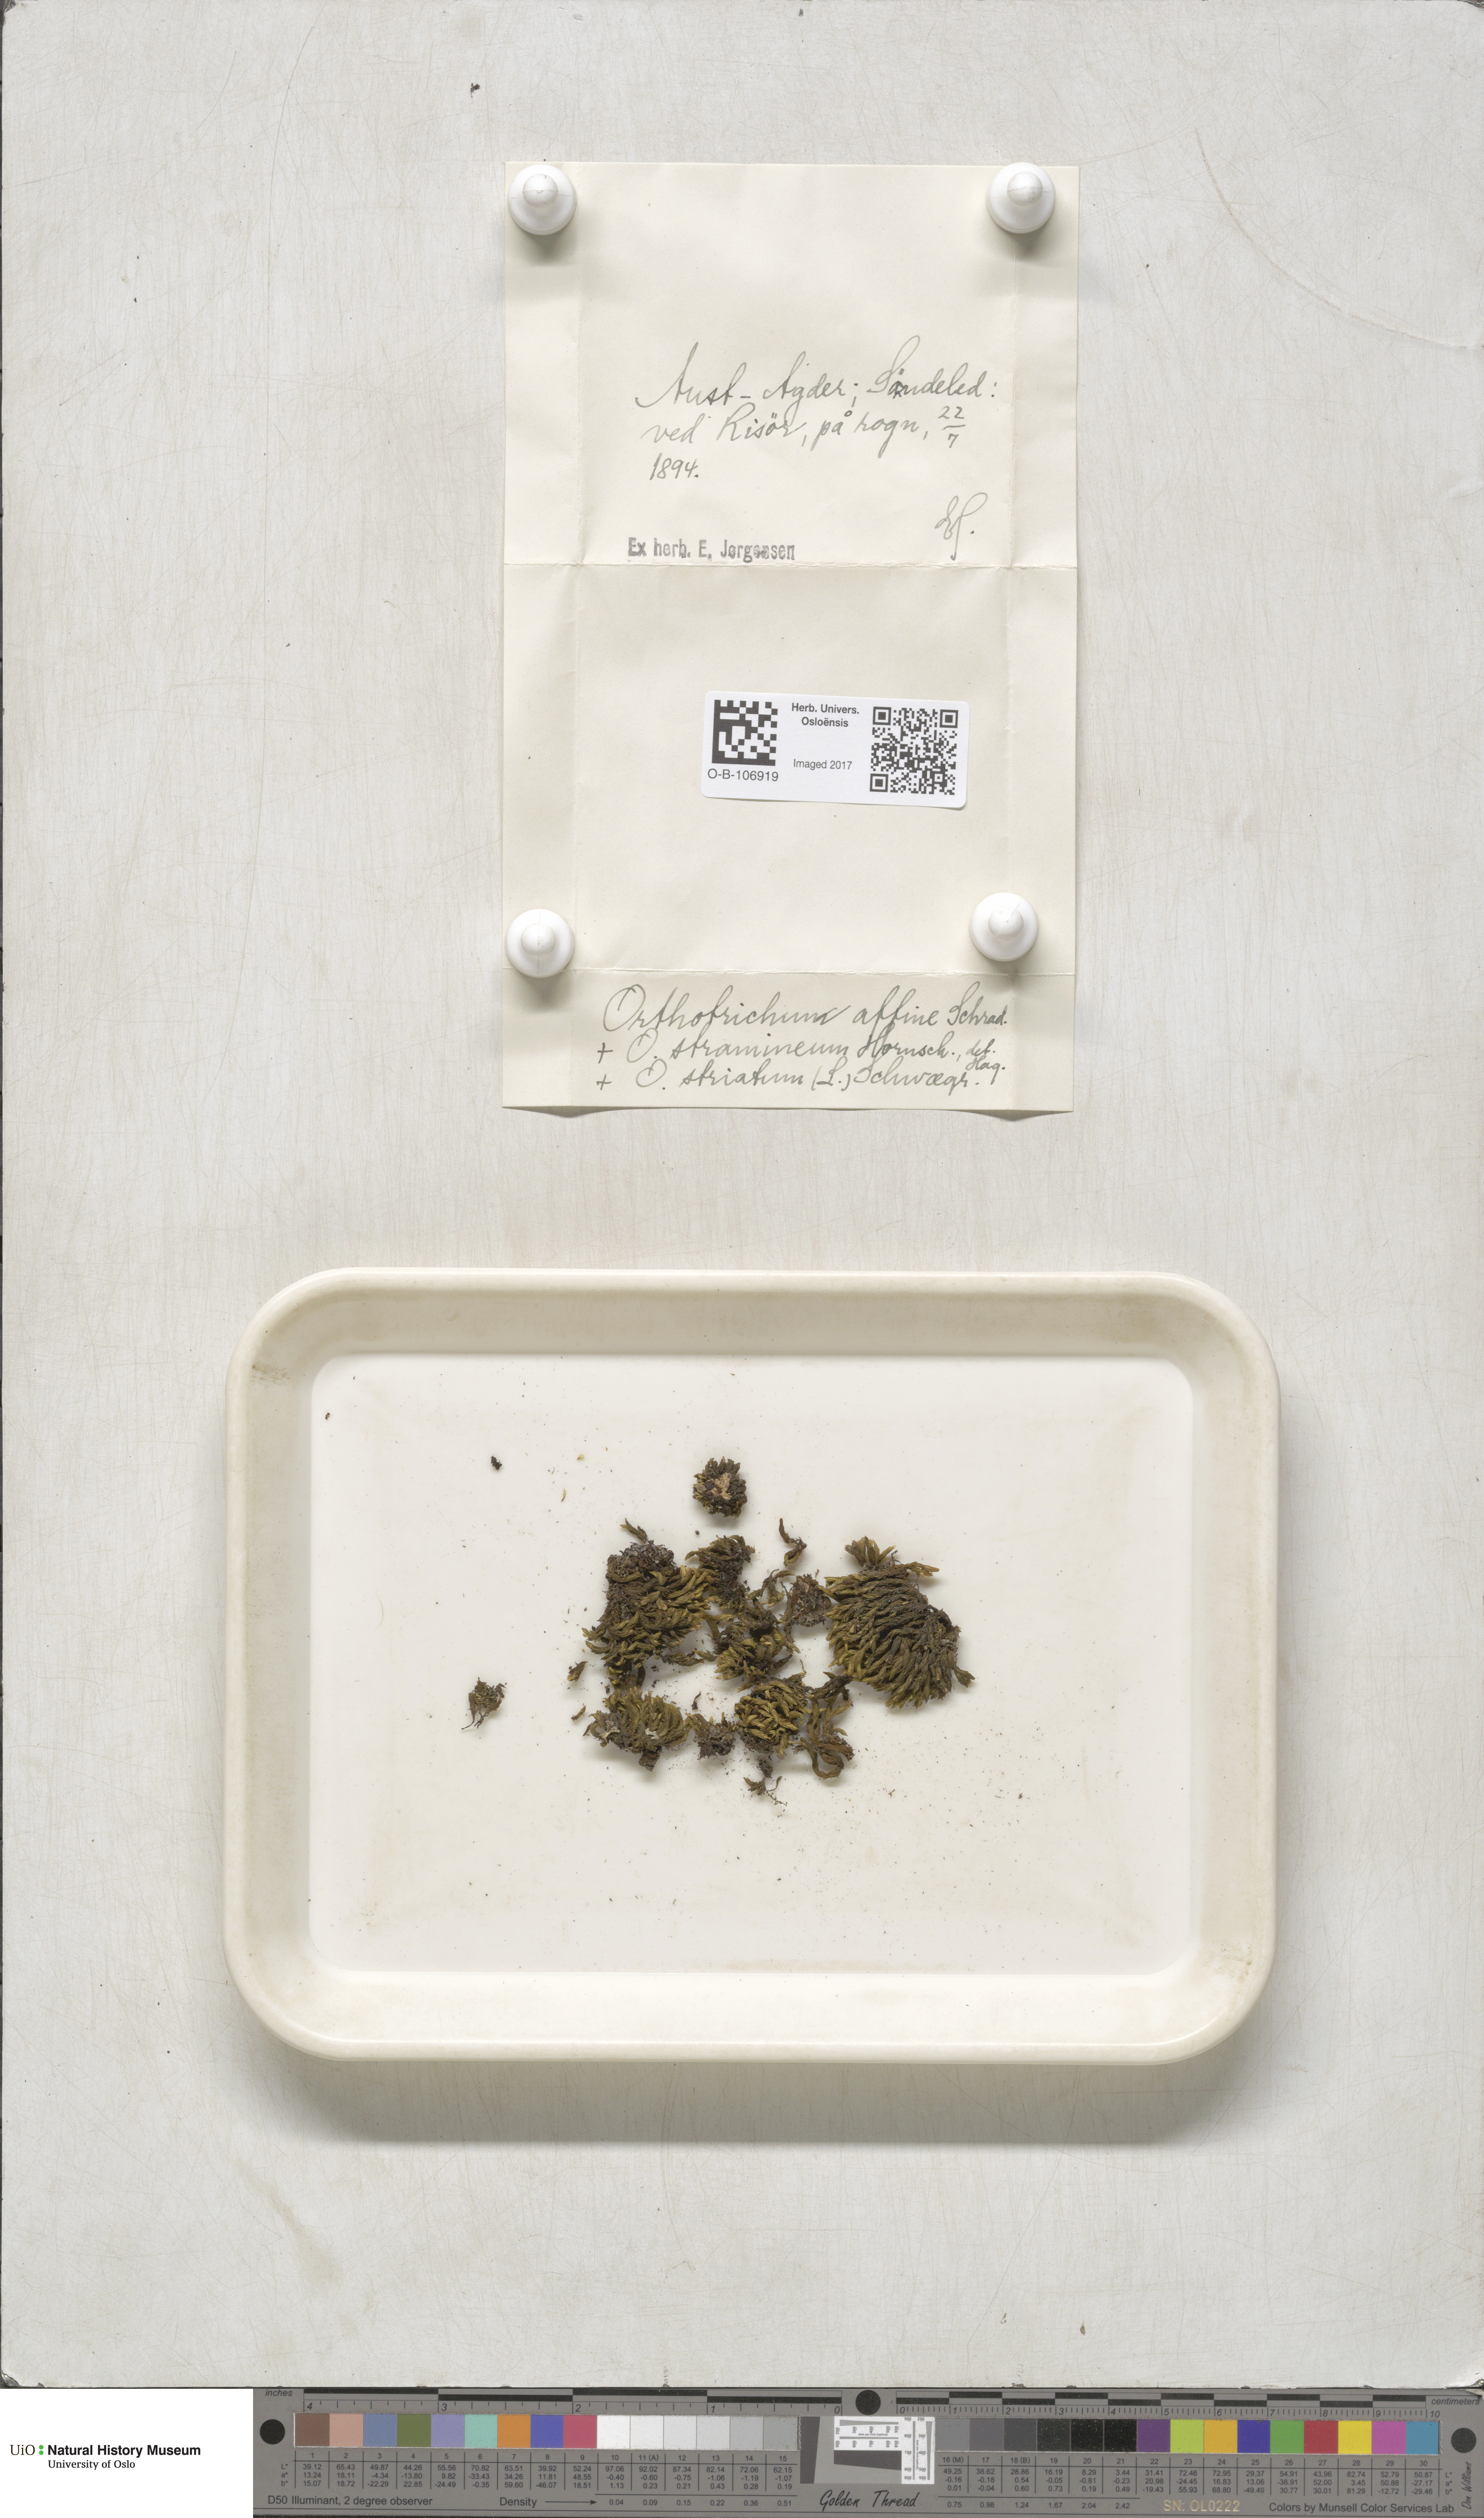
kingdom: Plantae
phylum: Bryophyta
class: Bryopsida
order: Orthotrichales
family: Orthotrichaceae
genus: Lewinskya
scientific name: Lewinskya affinis
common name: Wood bristle-moss
